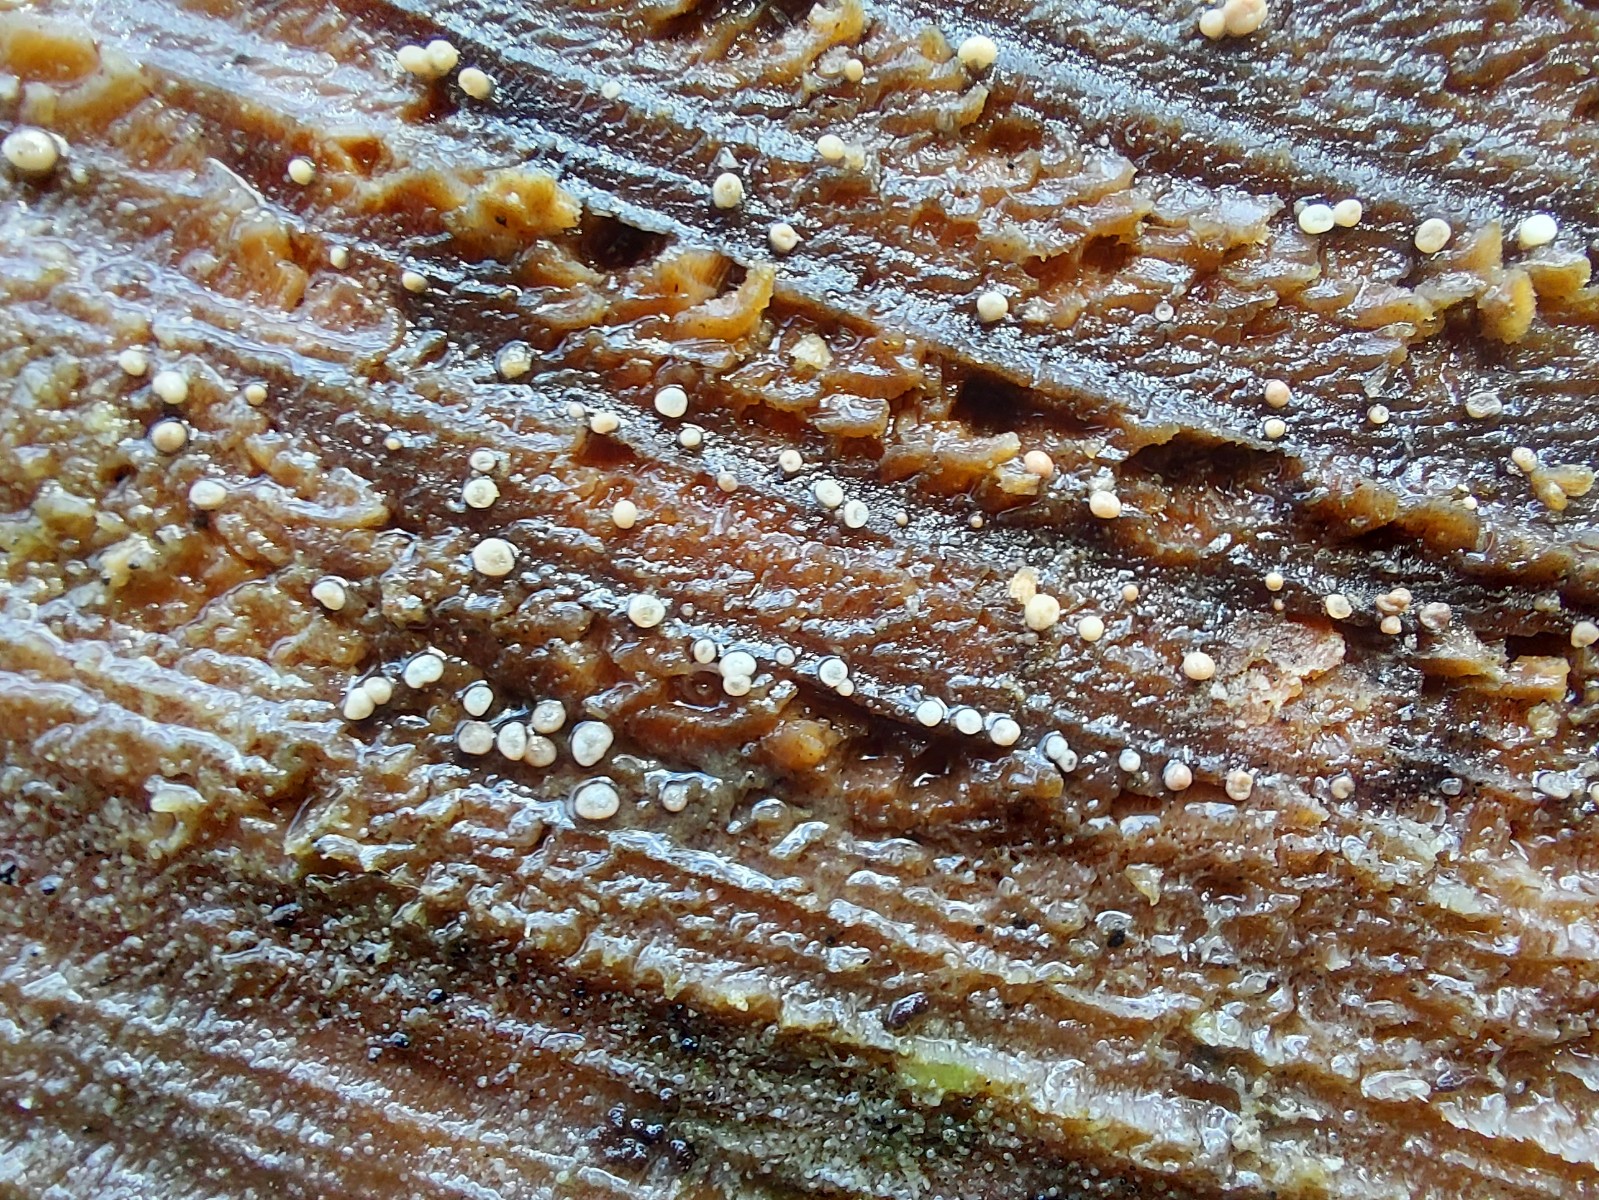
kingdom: Fungi
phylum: Ascomycota
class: Leotiomycetes
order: Helotiales
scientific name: Helotiales
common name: stilkskiveordenen
